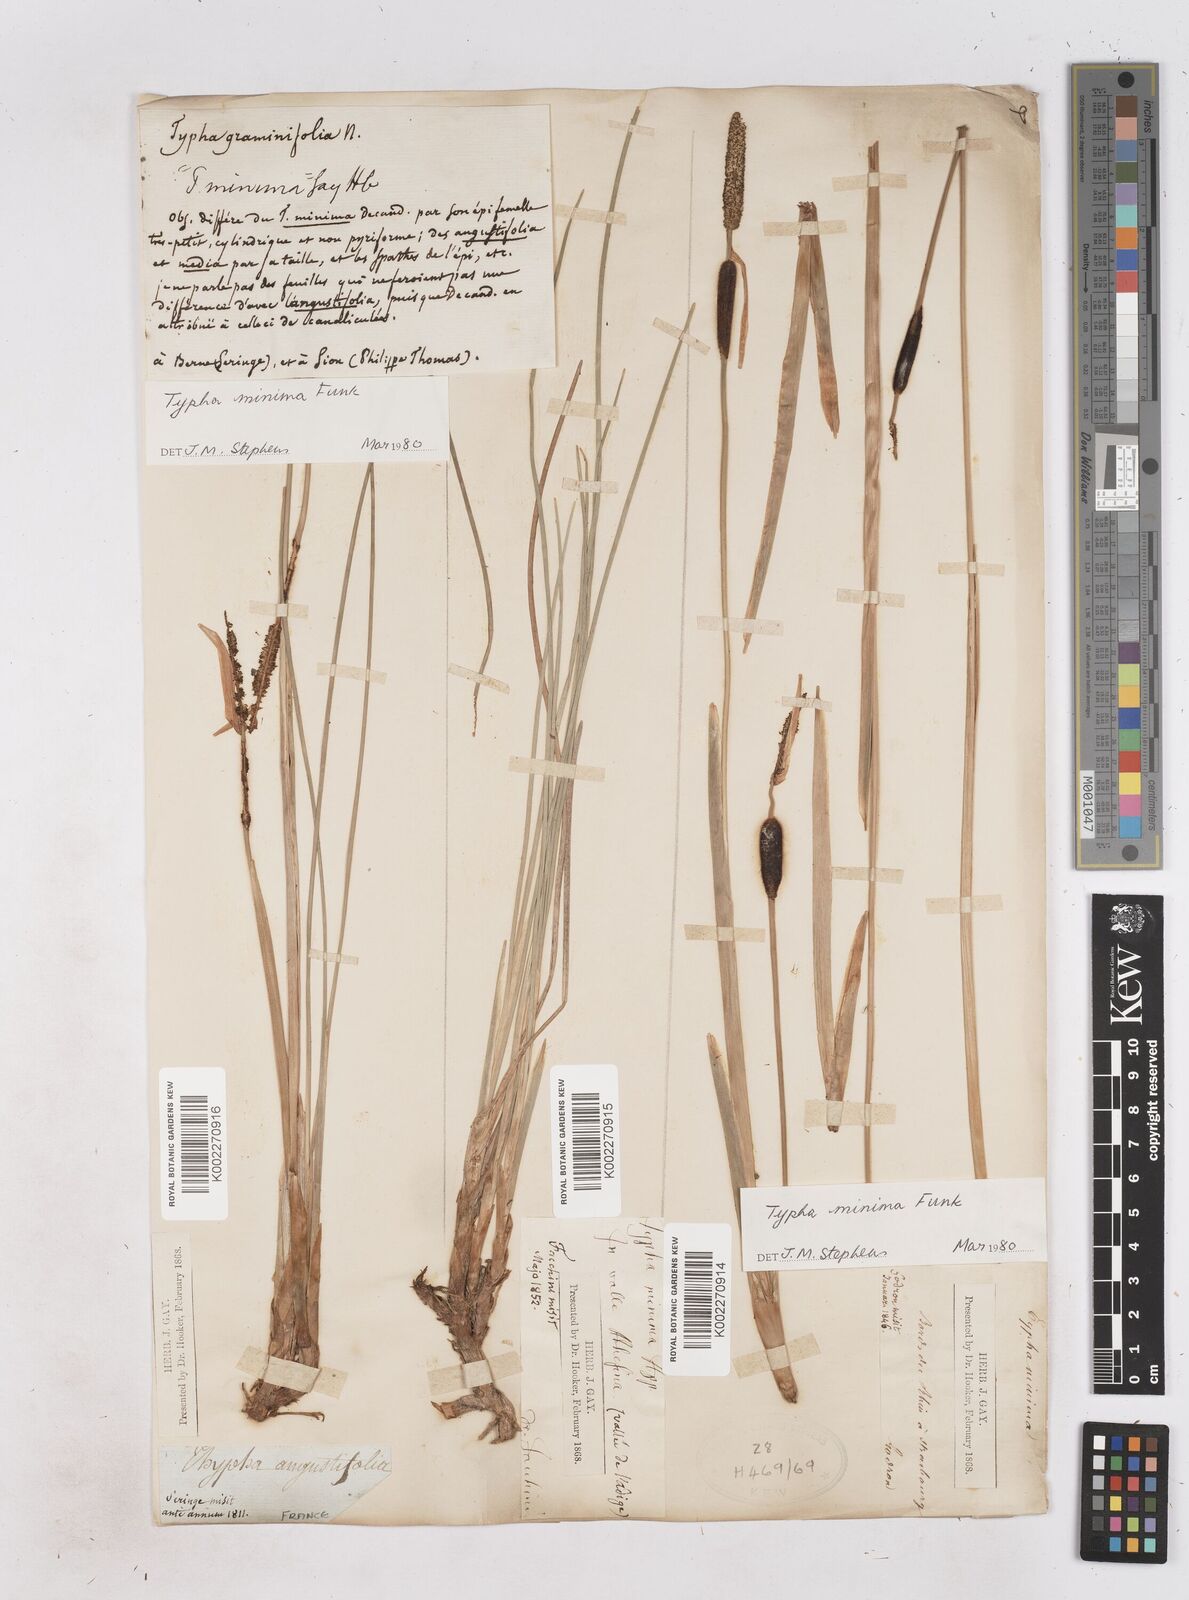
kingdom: Plantae
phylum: Tracheophyta
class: Liliopsida
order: Poales
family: Typhaceae
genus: Typha
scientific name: Typha
